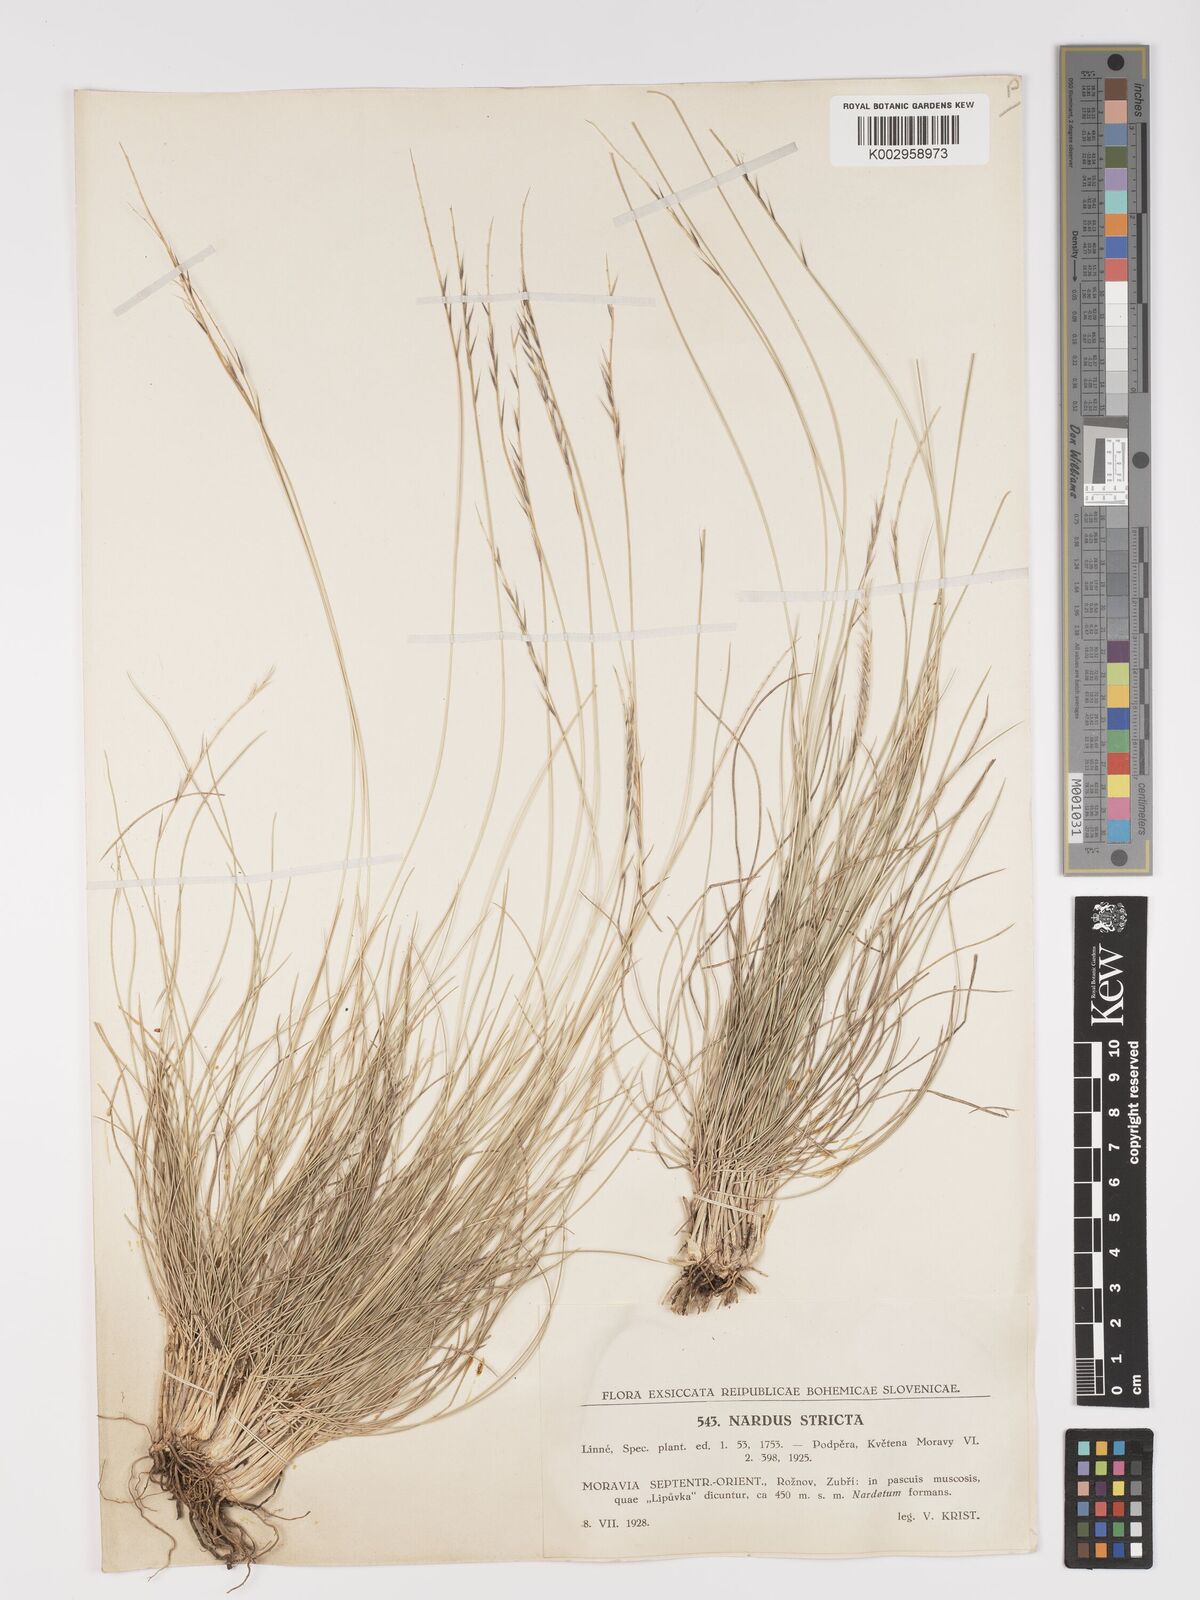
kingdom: Plantae
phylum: Tracheophyta
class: Liliopsida
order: Poales
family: Poaceae
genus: Nardus
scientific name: Nardus stricta
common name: Mat-grass
